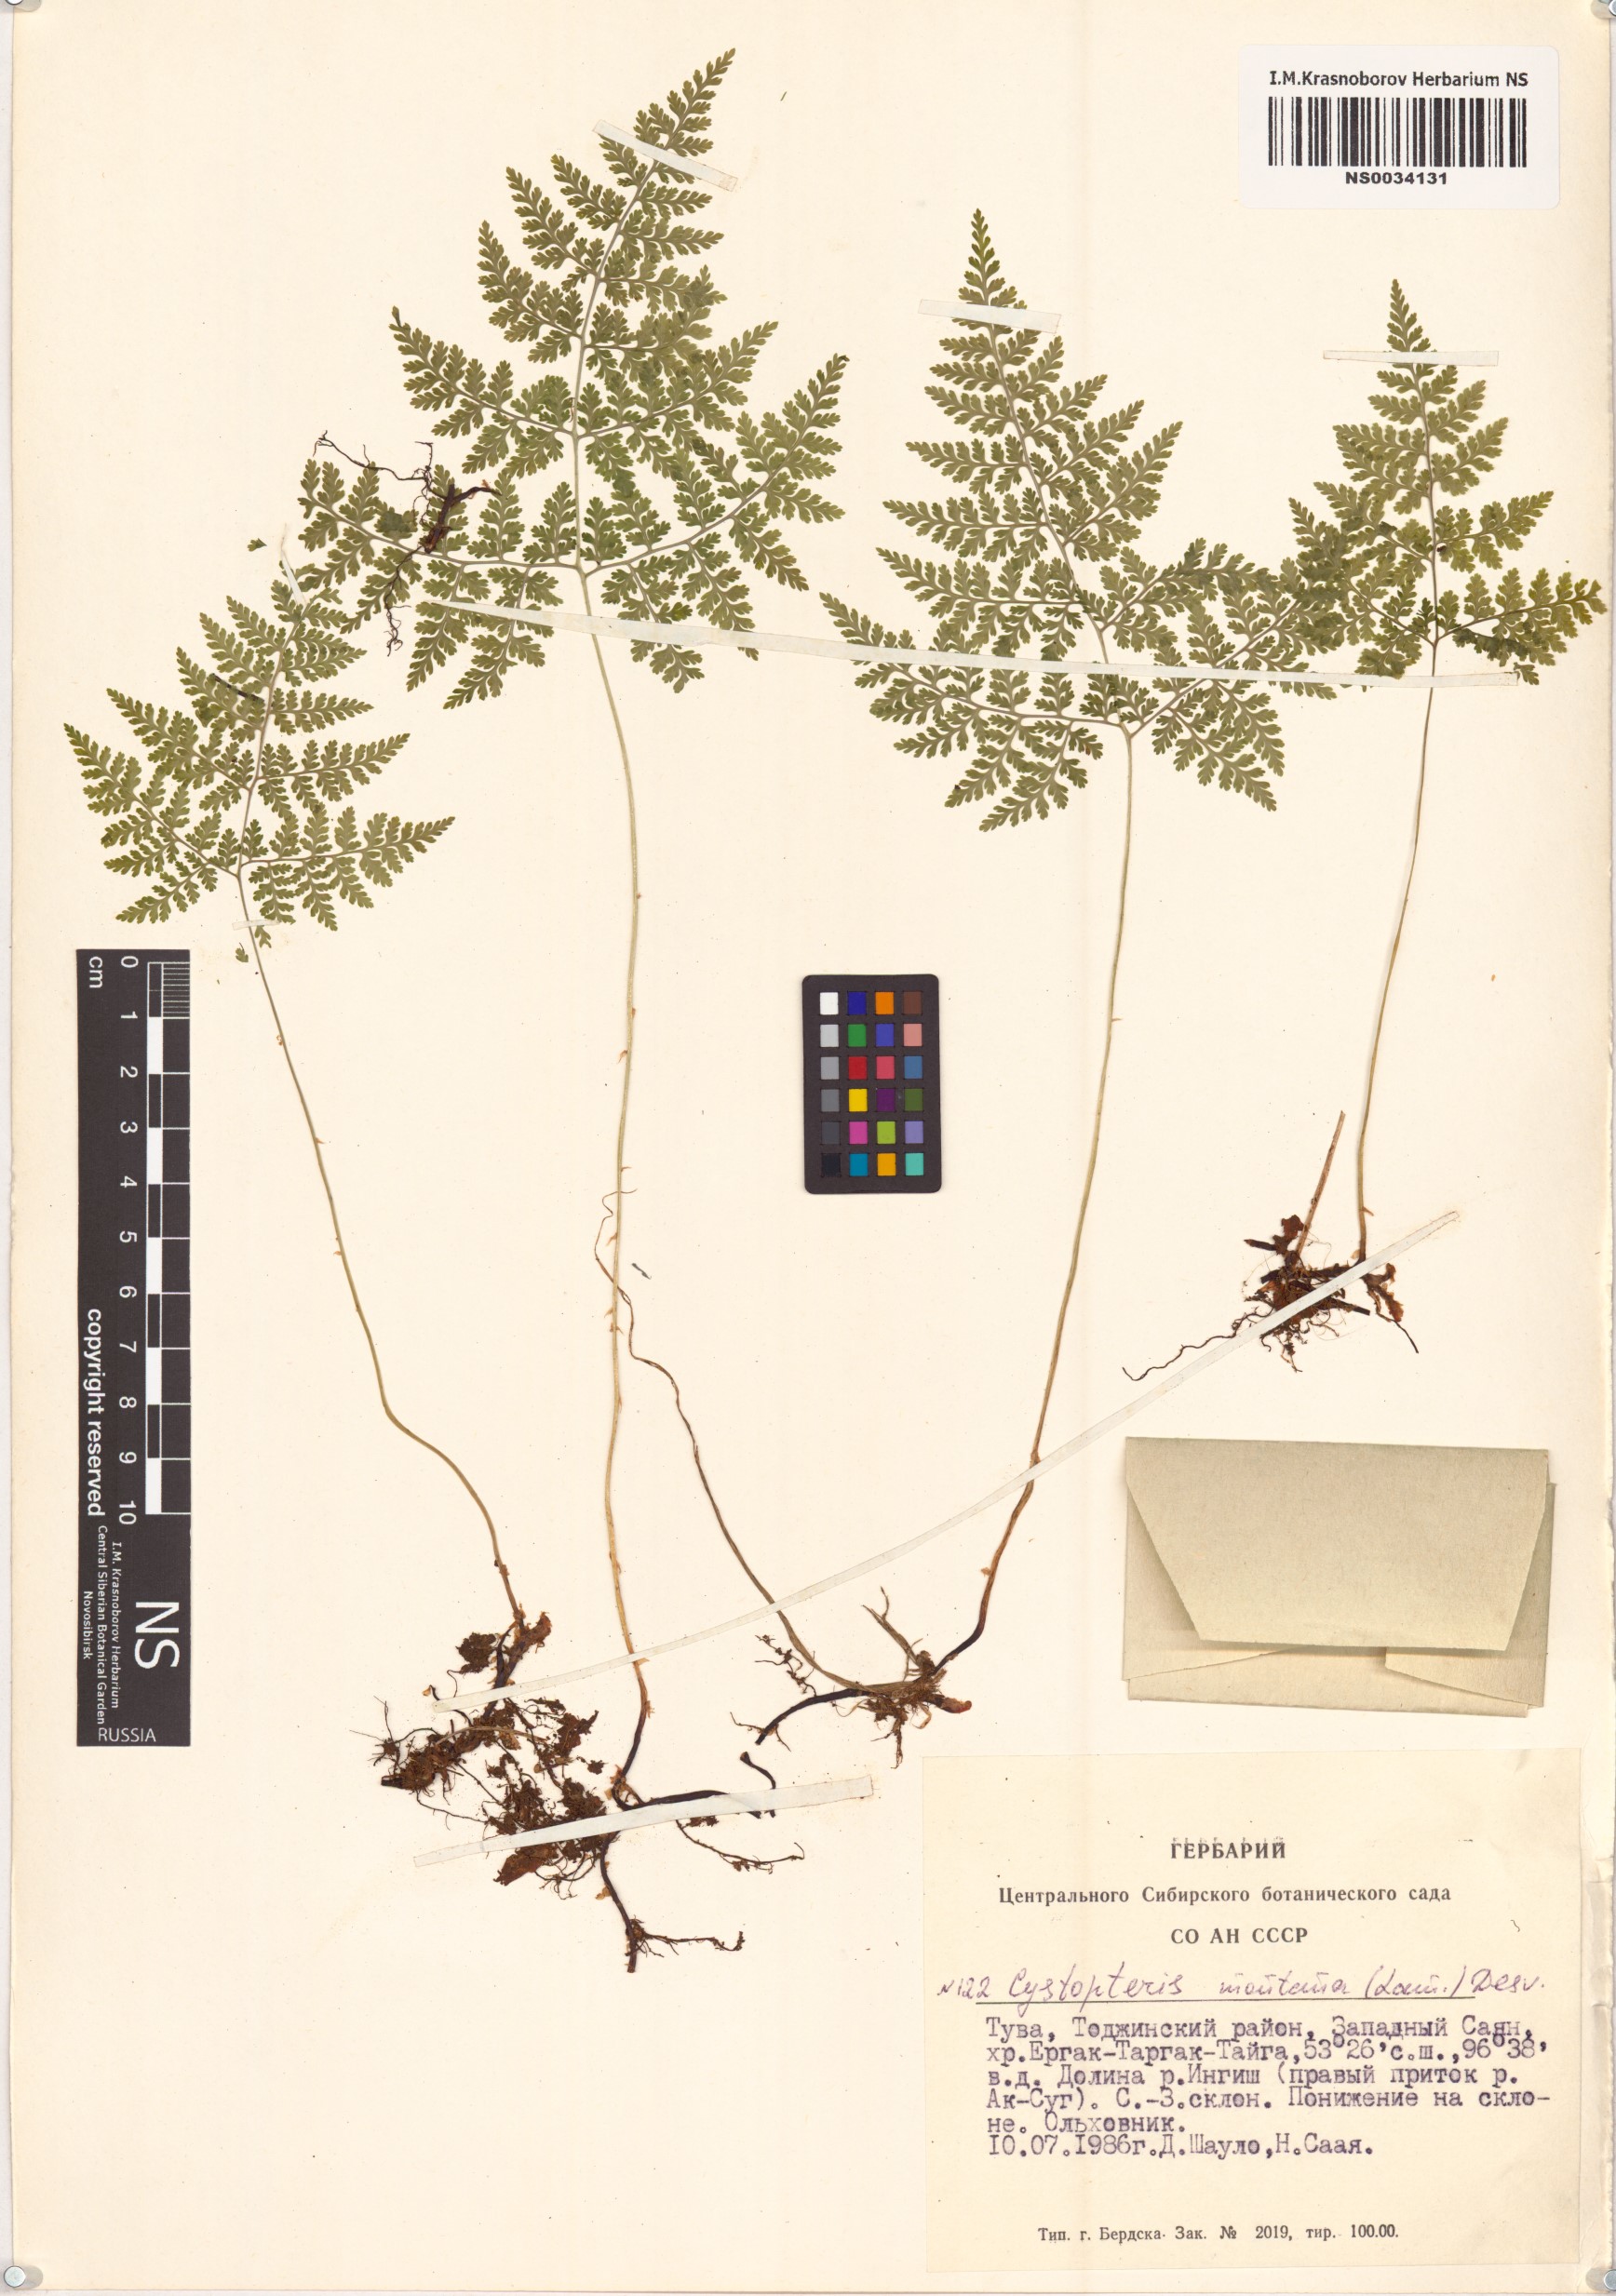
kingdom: Plantae
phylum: Tracheophyta
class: Polypodiopsida
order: Polypodiales
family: Cystopteridaceae
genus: Cystopteris
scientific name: Cystopteris montana
